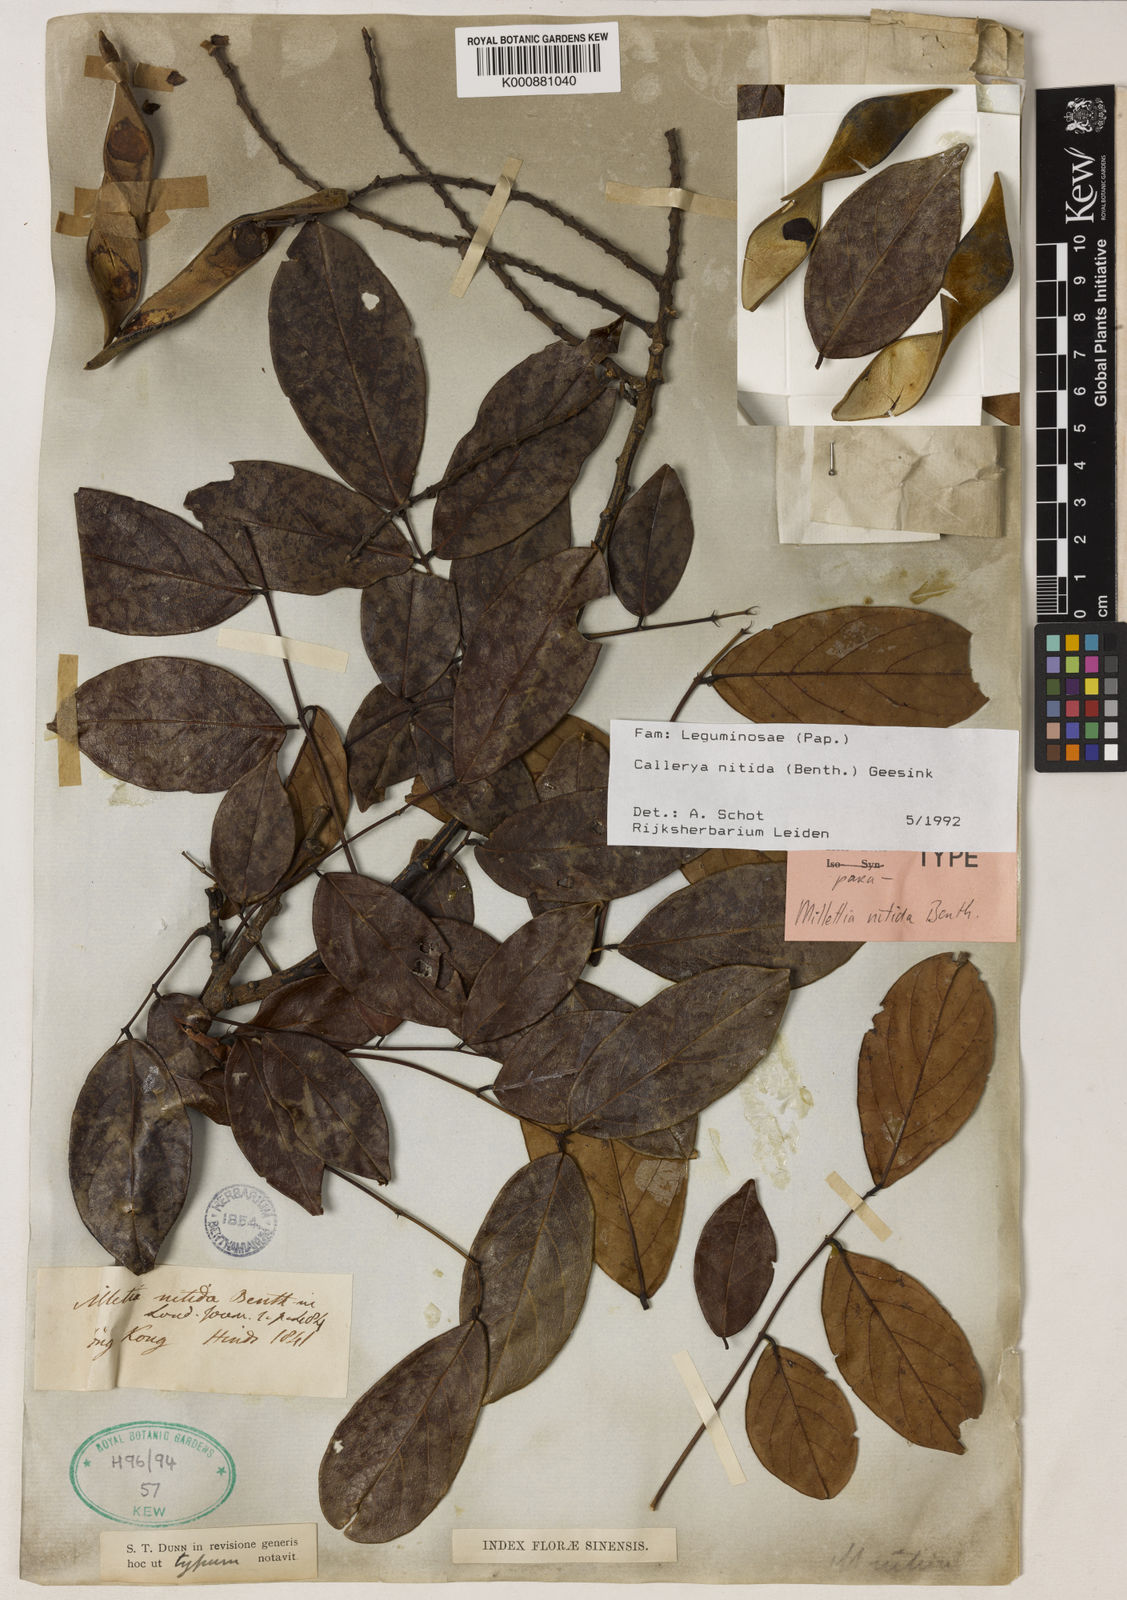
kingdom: Plantae
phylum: Tracheophyta
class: Magnoliopsida
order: Fabales
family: Fabaceae
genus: Callerya
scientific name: Callerya nitida
